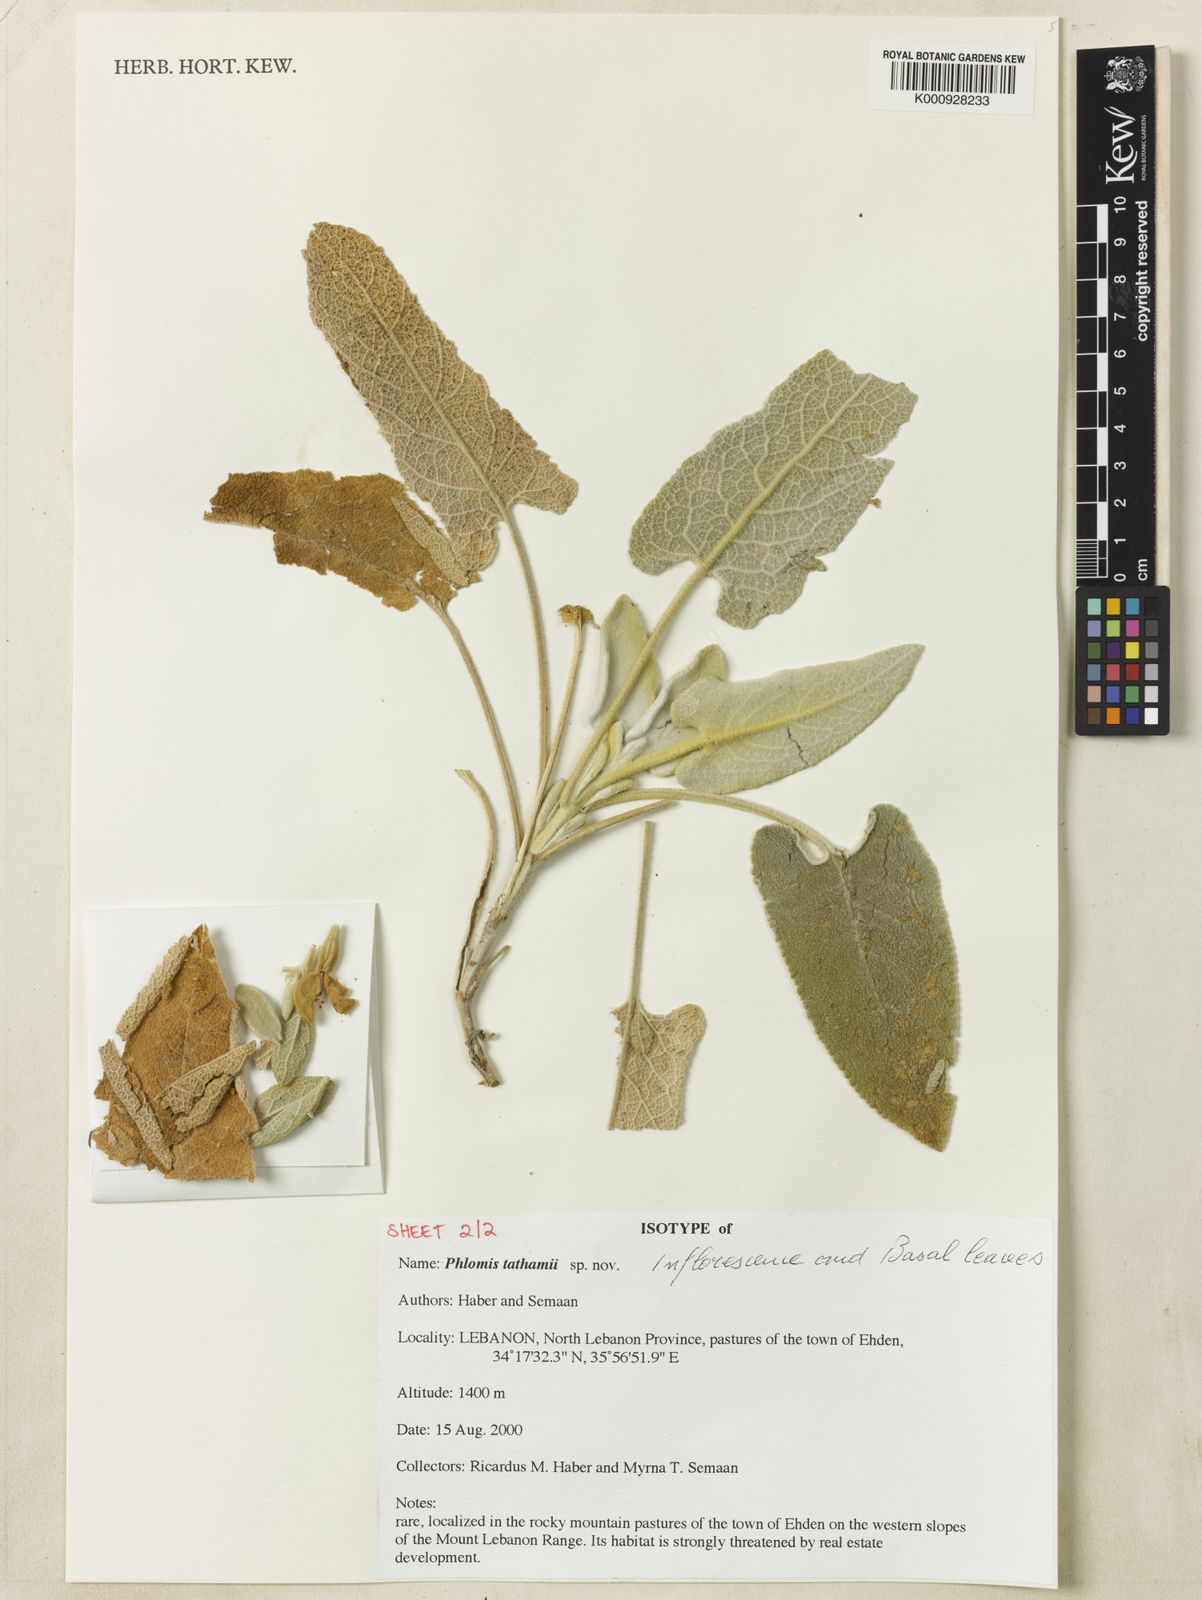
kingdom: Plantae
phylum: Tracheophyta
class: Magnoliopsida
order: Lamiales
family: Lamiaceae
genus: Phlomis
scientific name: Phlomis
